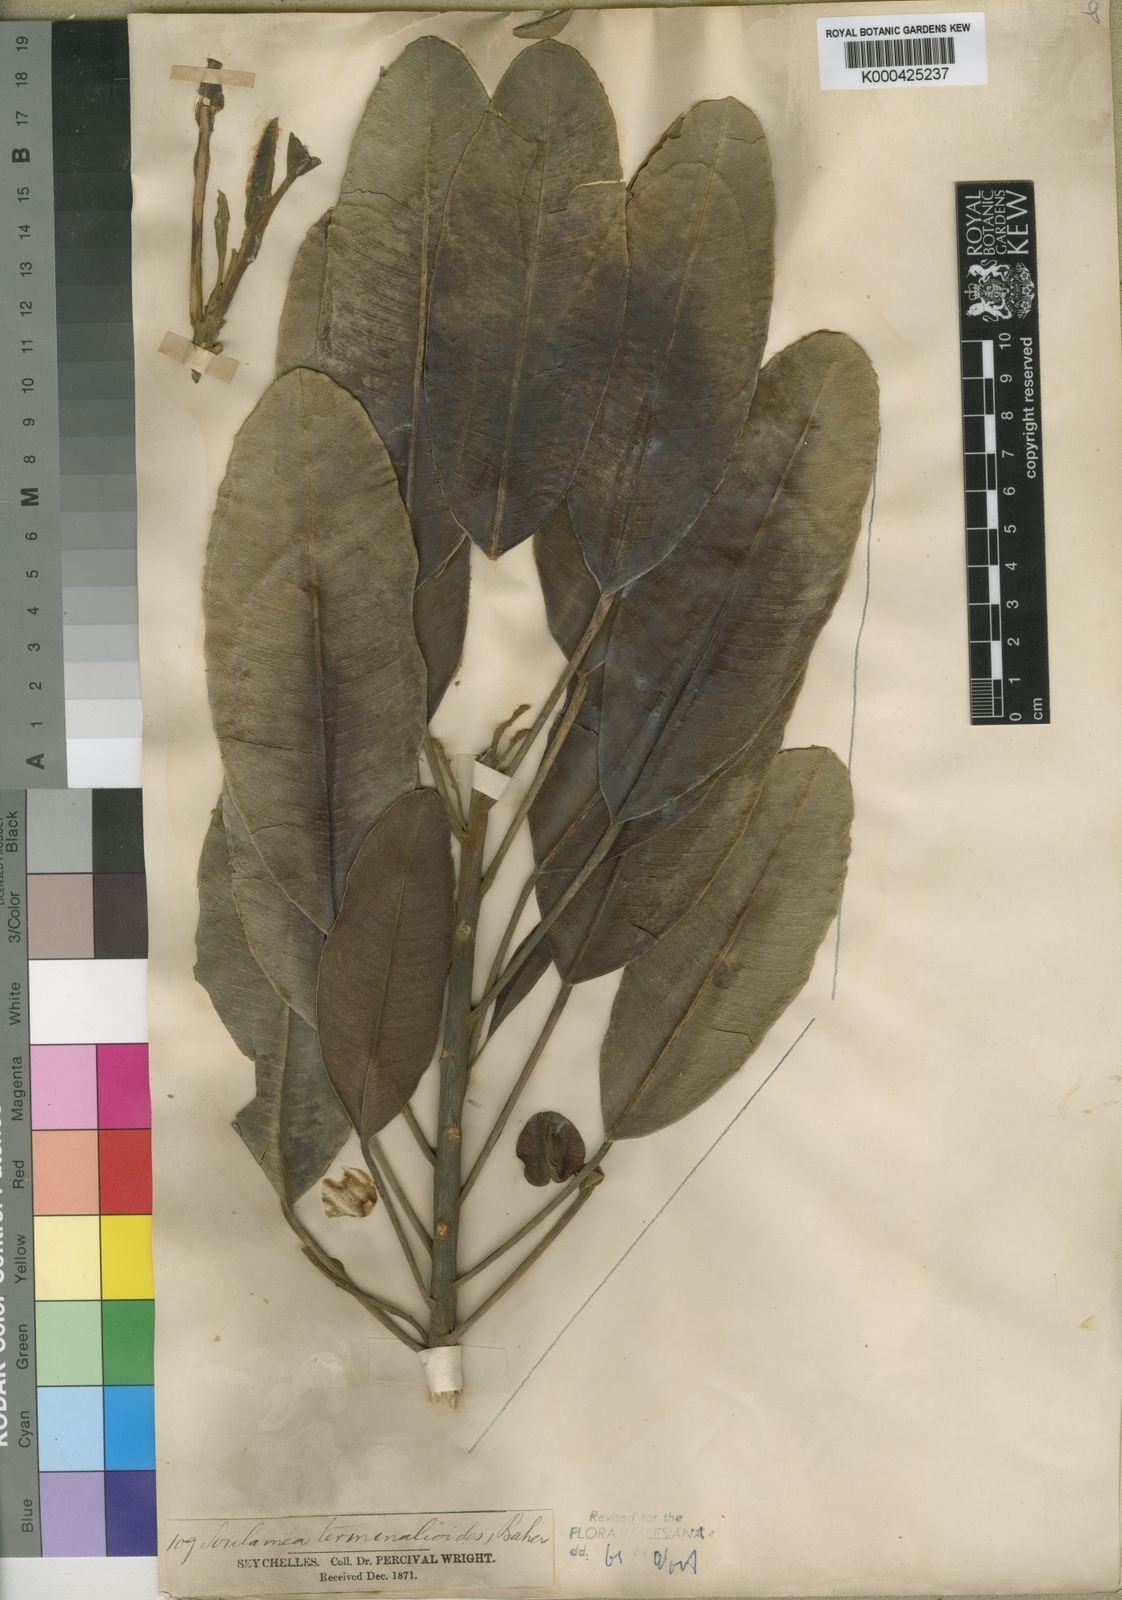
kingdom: Plantae
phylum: Tracheophyta
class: Magnoliopsida
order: Sapindales
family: Simaroubaceae
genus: Soulamea
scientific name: Soulamea
